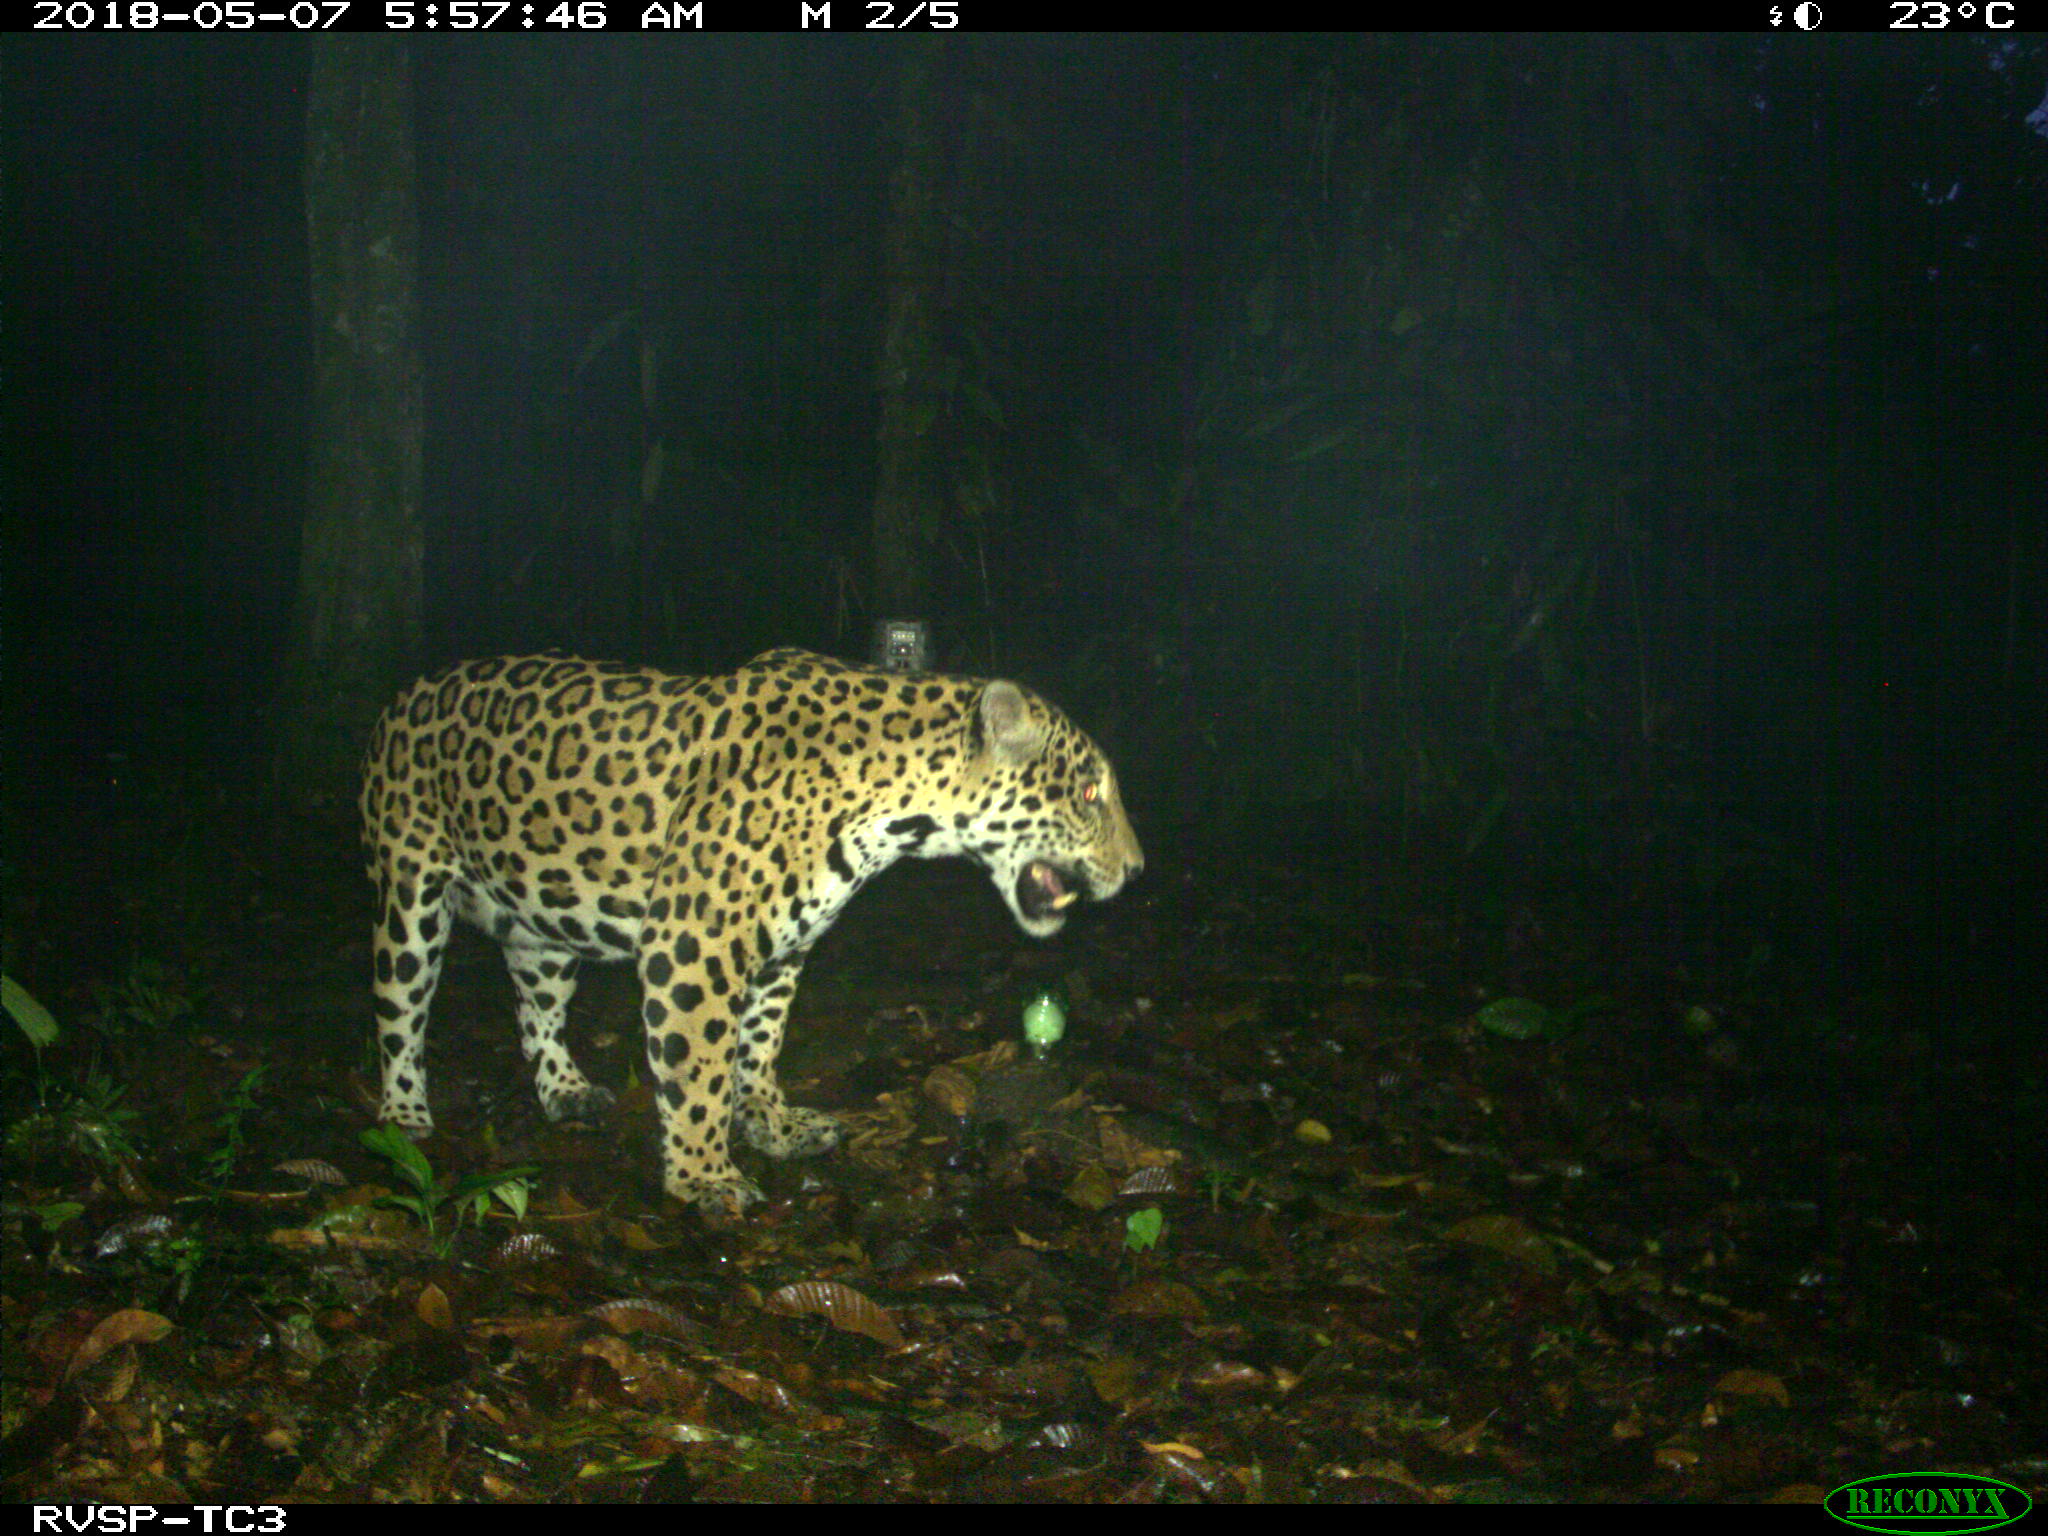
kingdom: Animalia
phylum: Chordata
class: Mammalia
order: Carnivora
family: Felidae
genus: Panthera
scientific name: Panthera onca
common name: Jaguar
